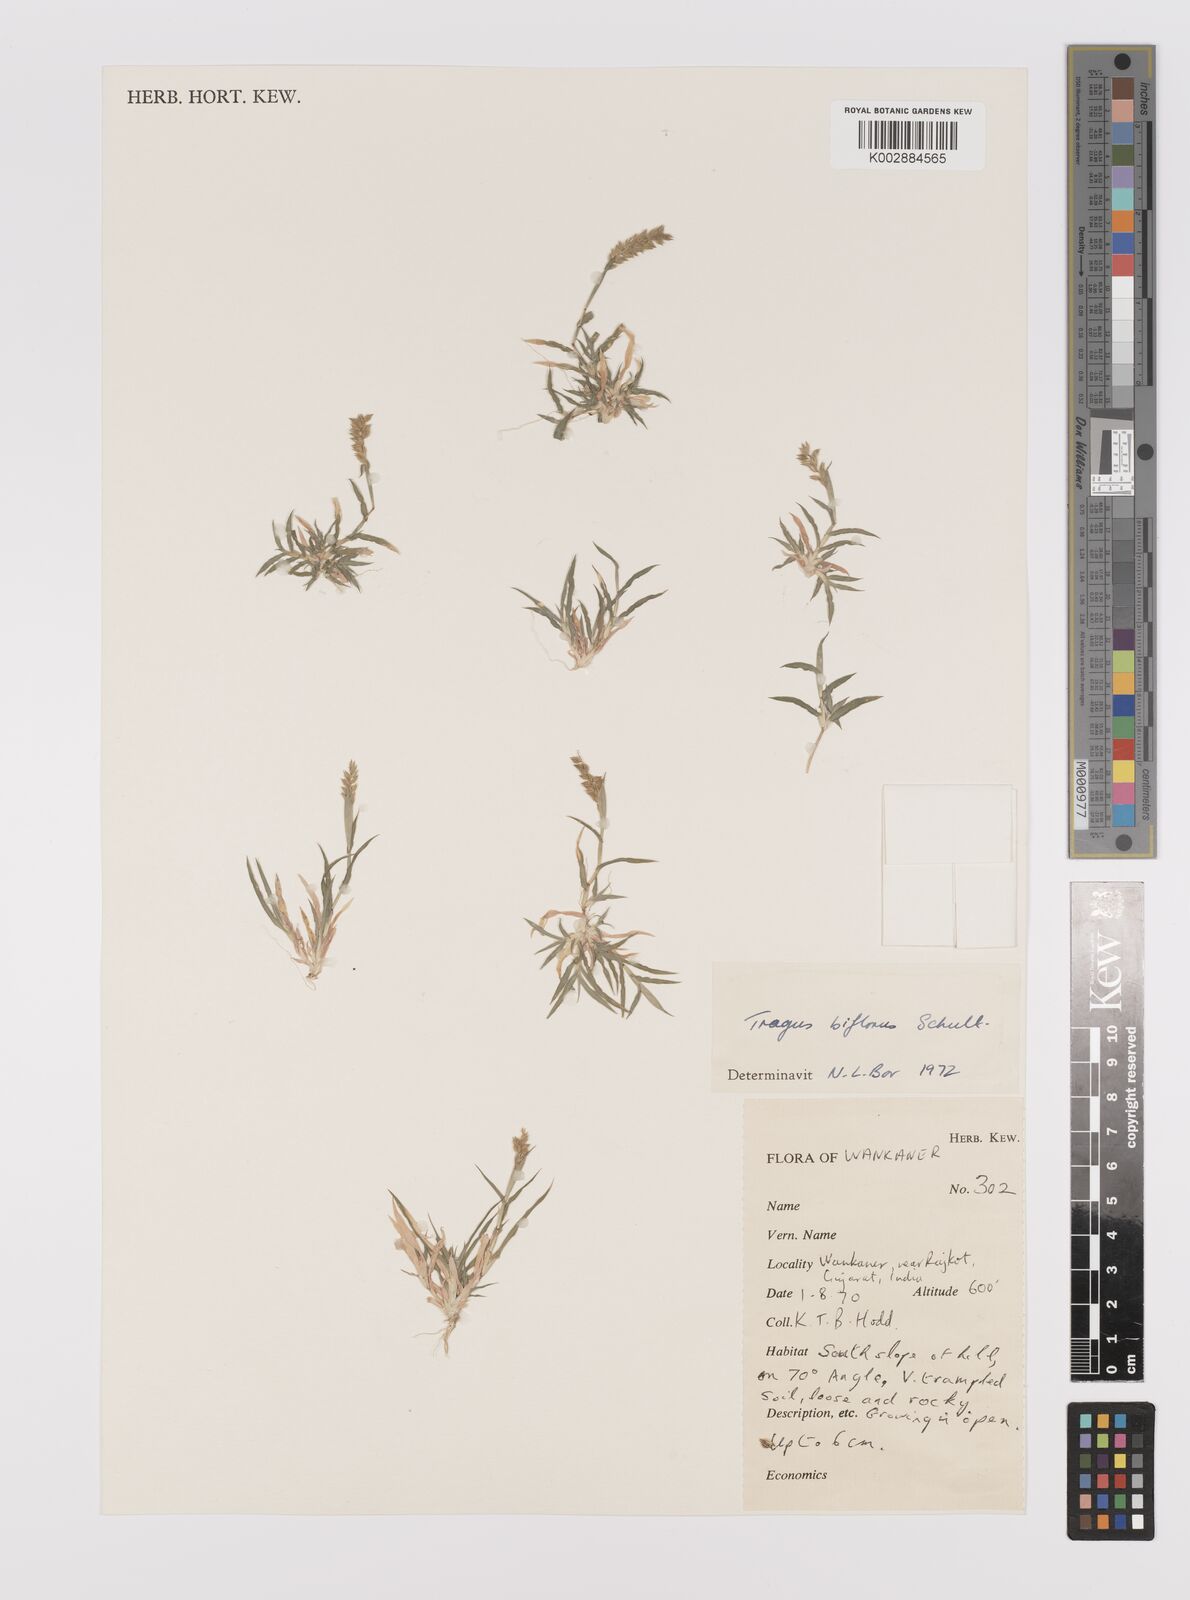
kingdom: Plantae
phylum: Tracheophyta
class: Liliopsida
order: Poales
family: Poaceae
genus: Tragus
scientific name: Tragus mongolorum
